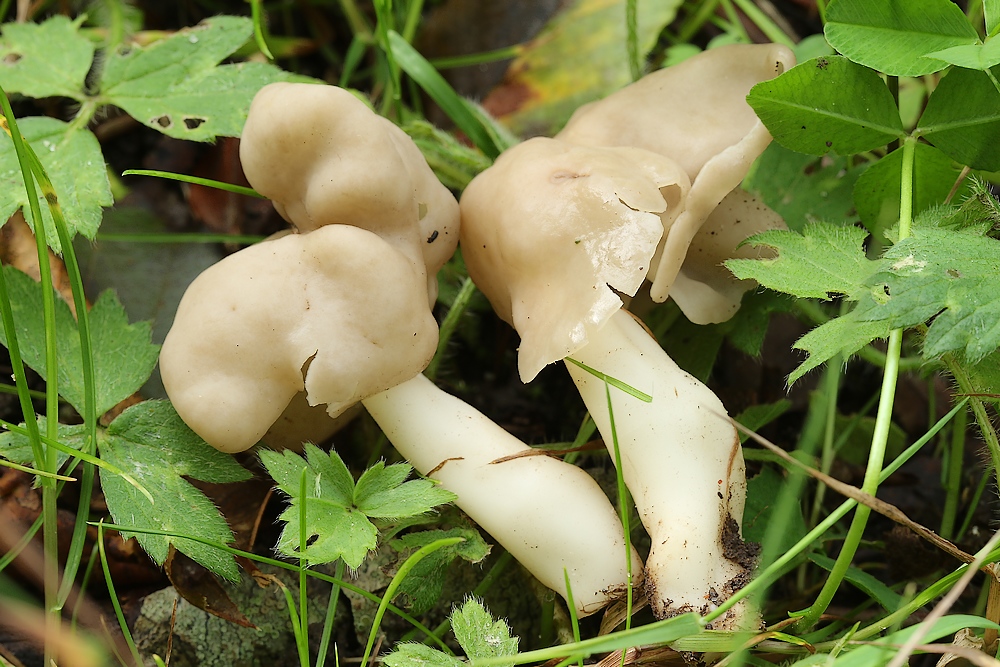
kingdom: Fungi
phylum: Ascomycota
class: Pezizomycetes
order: Pezizales
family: Helvellaceae
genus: Helvella
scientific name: Helvella elastica
